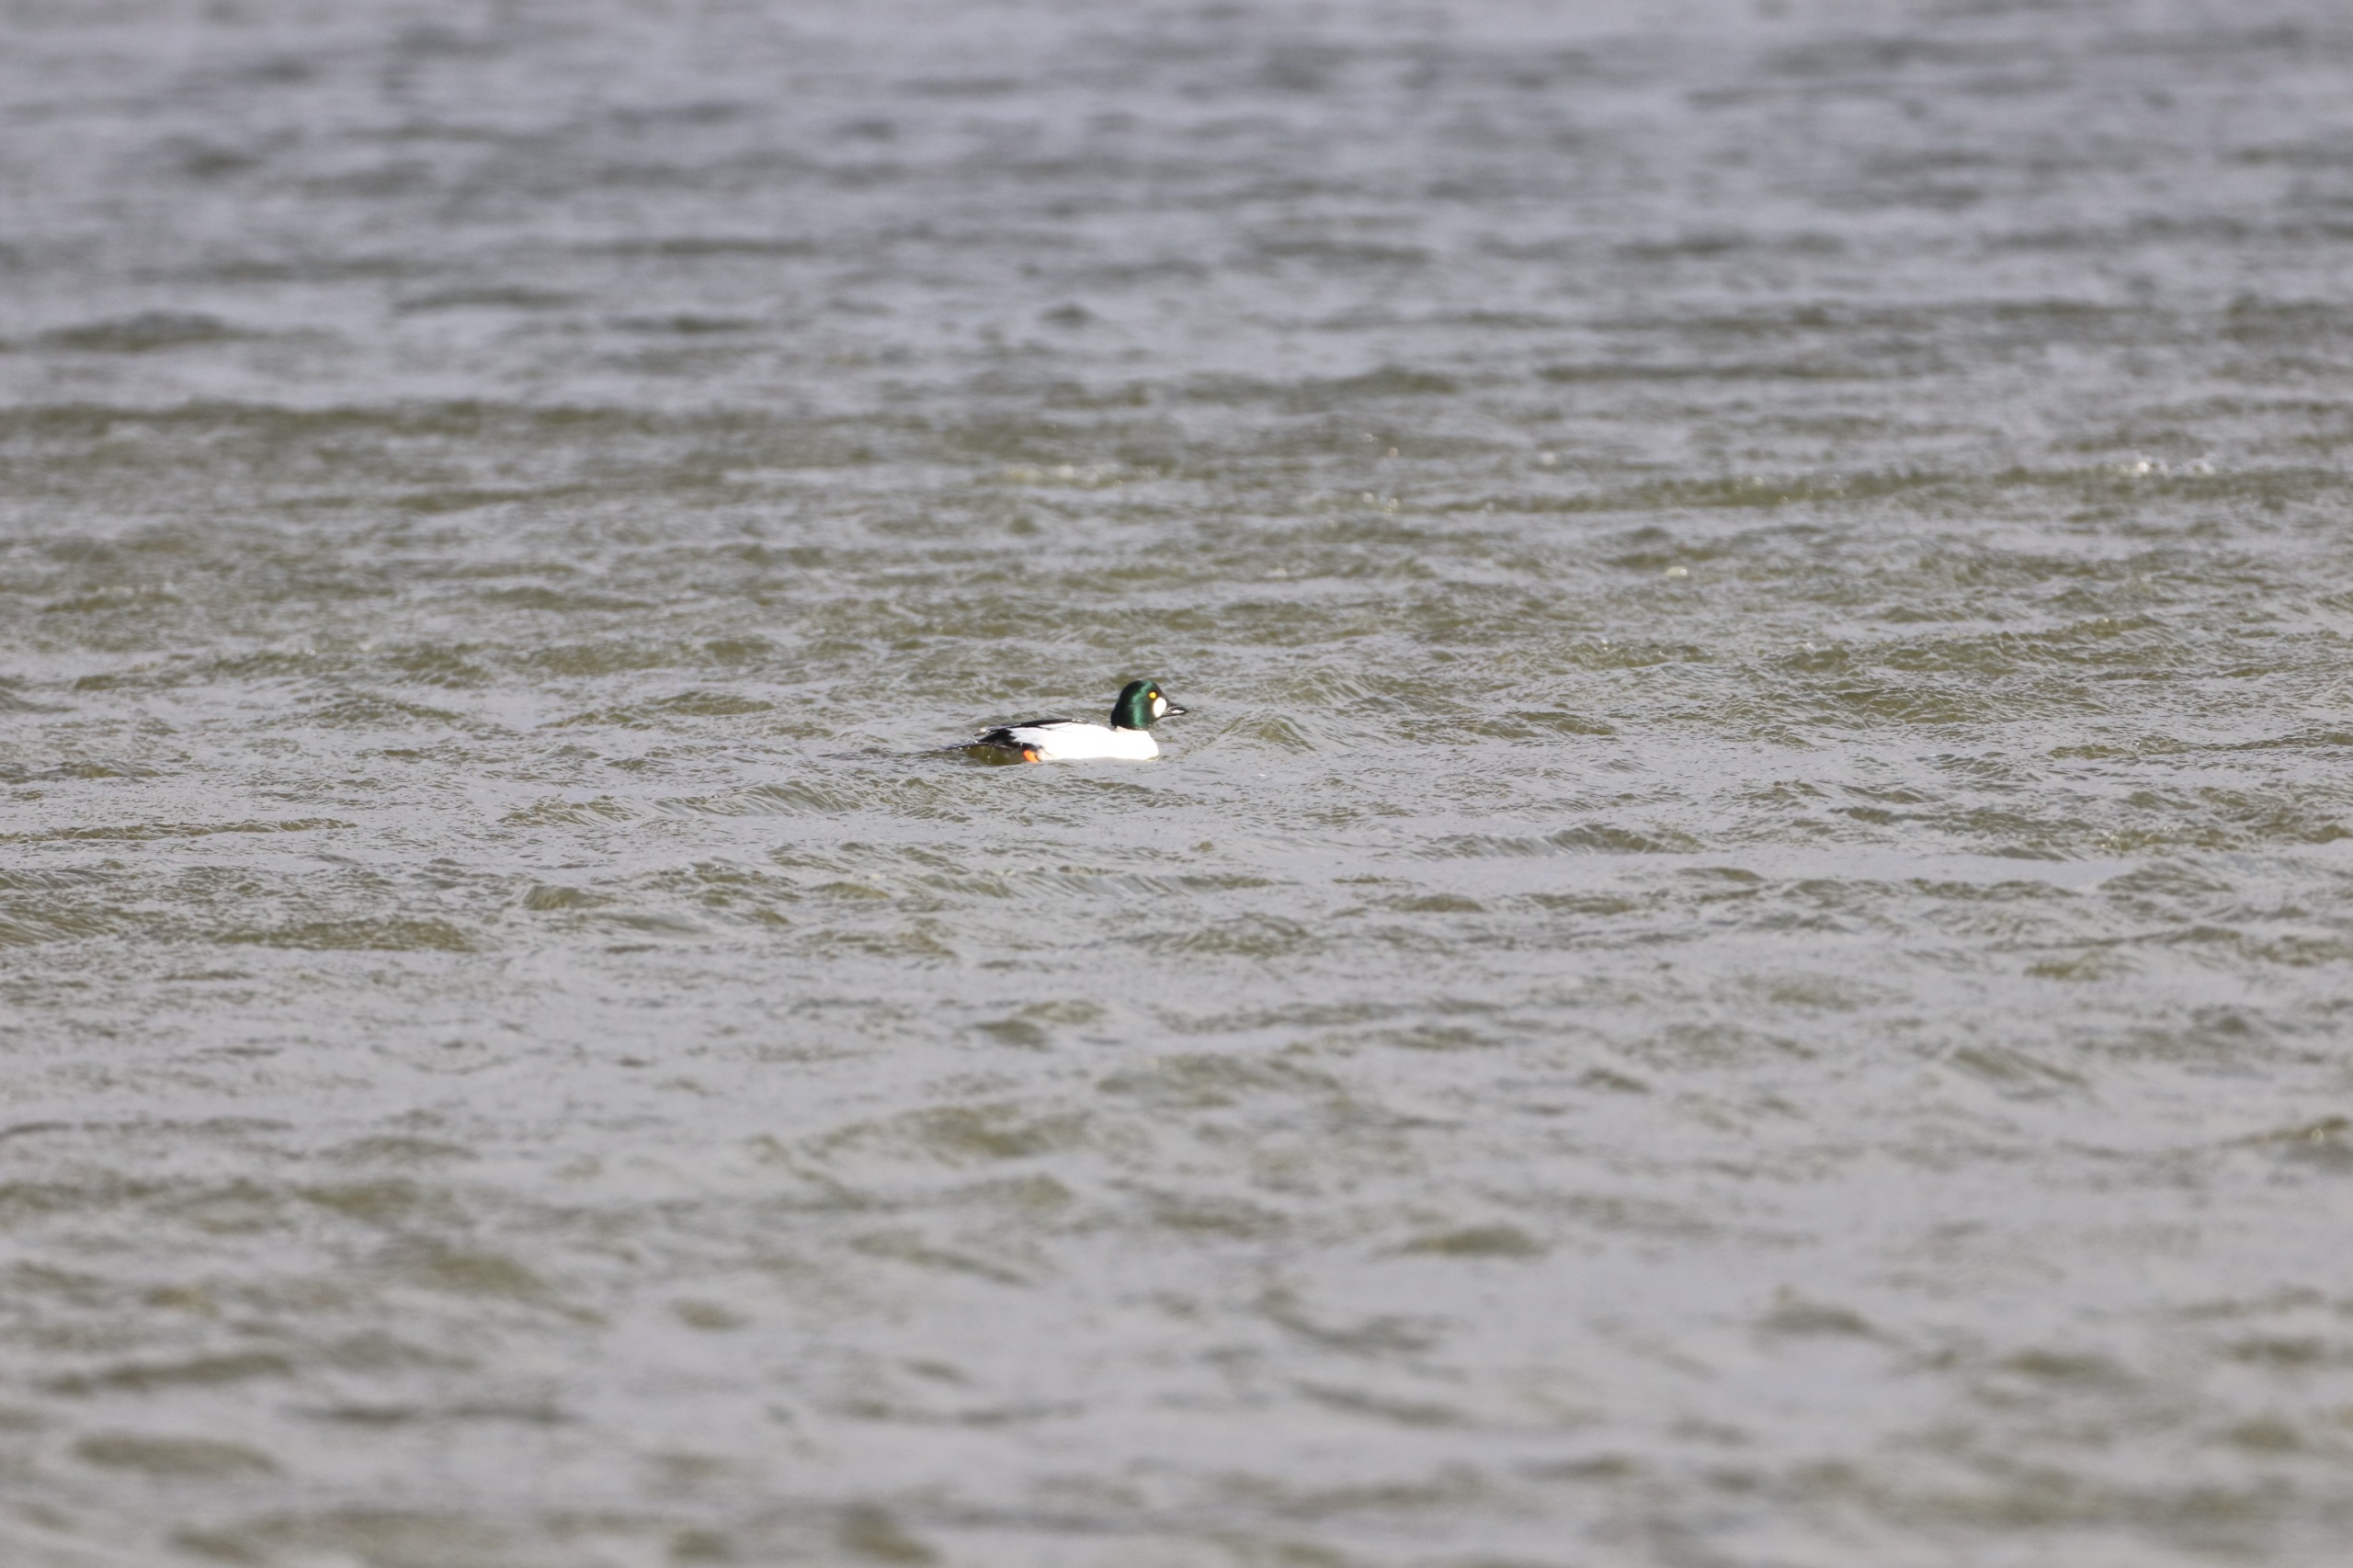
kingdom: Animalia
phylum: Chordata
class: Aves
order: Anseriformes
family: Anatidae
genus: Bucephala
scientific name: Bucephala clangula
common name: Hvinand
